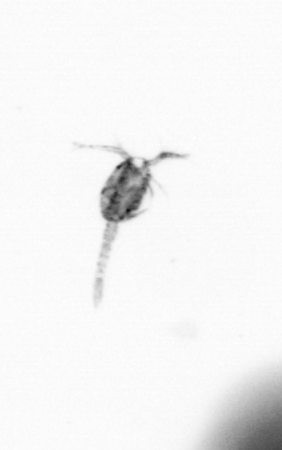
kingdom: Animalia
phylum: Arthropoda
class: Copepoda
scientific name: Copepoda
